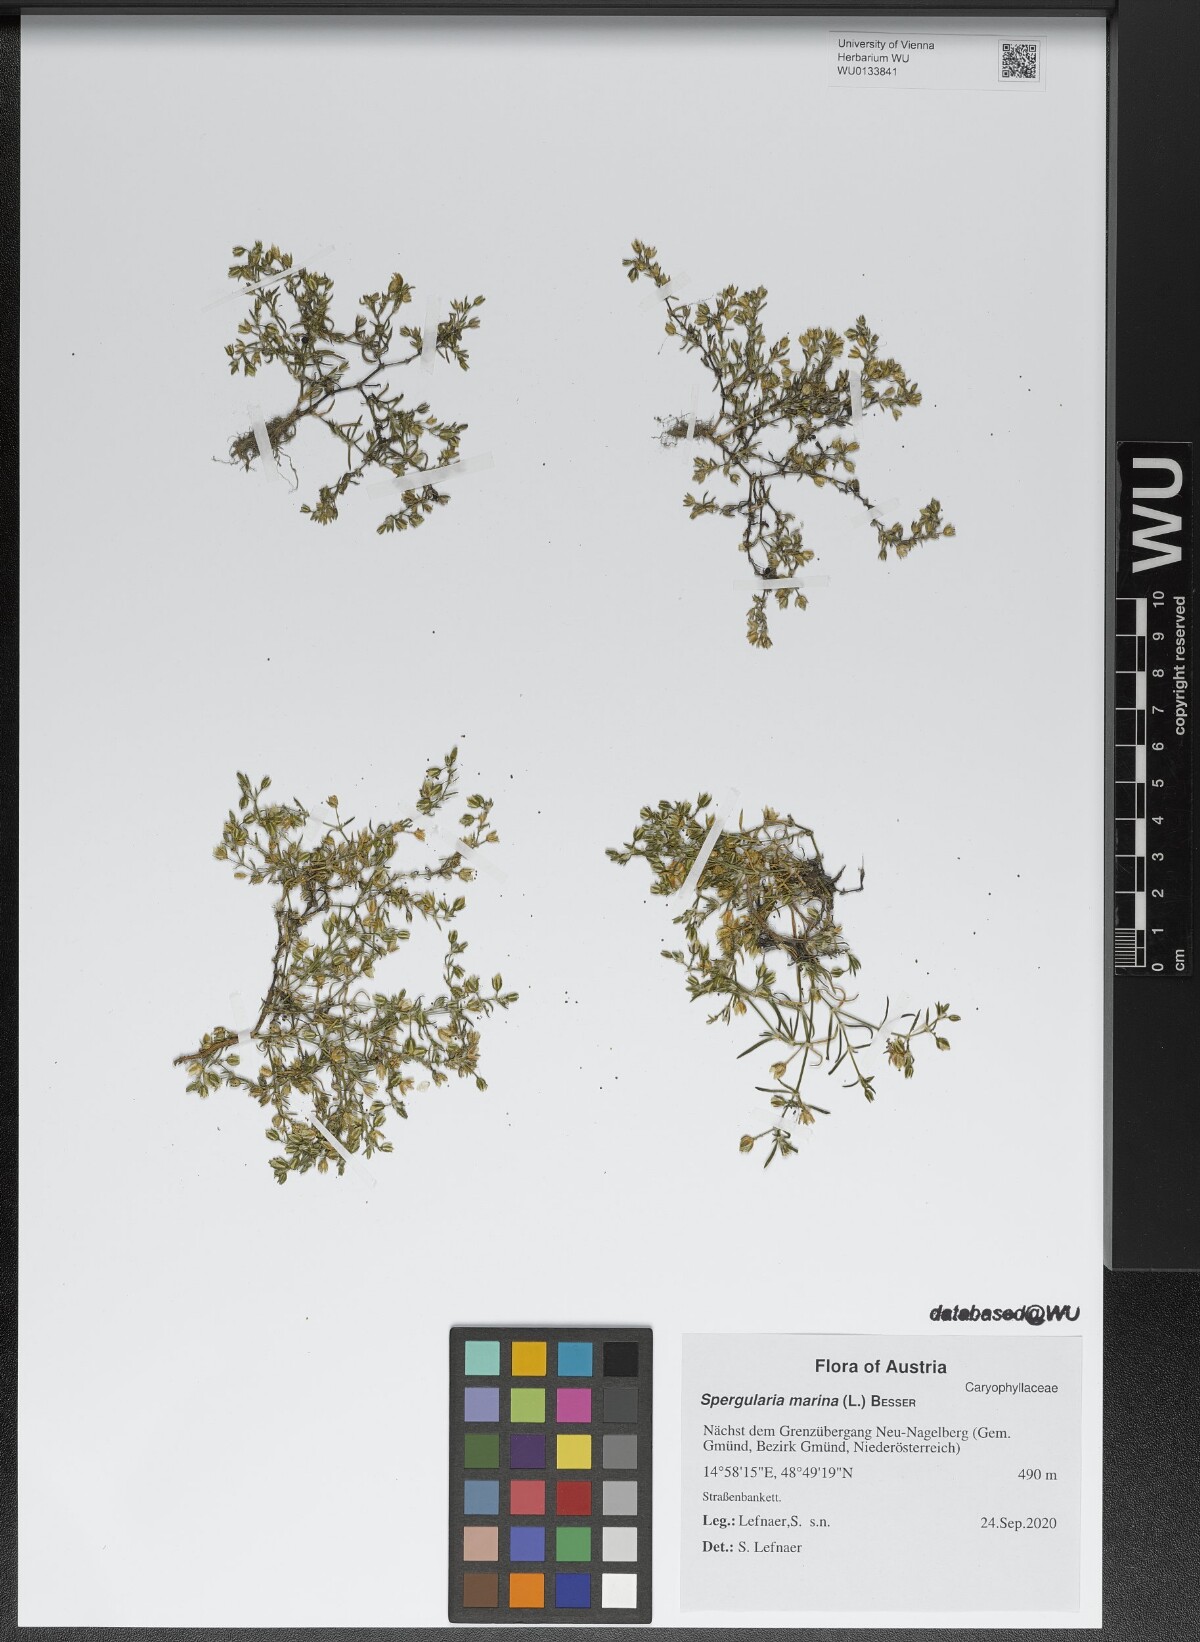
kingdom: Plantae
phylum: Tracheophyta
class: Magnoliopsida
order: Caryophyllales
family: Caryophyllaceae
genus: Spergularia
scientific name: Spergularia marina
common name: Lesser sea-spurrey
